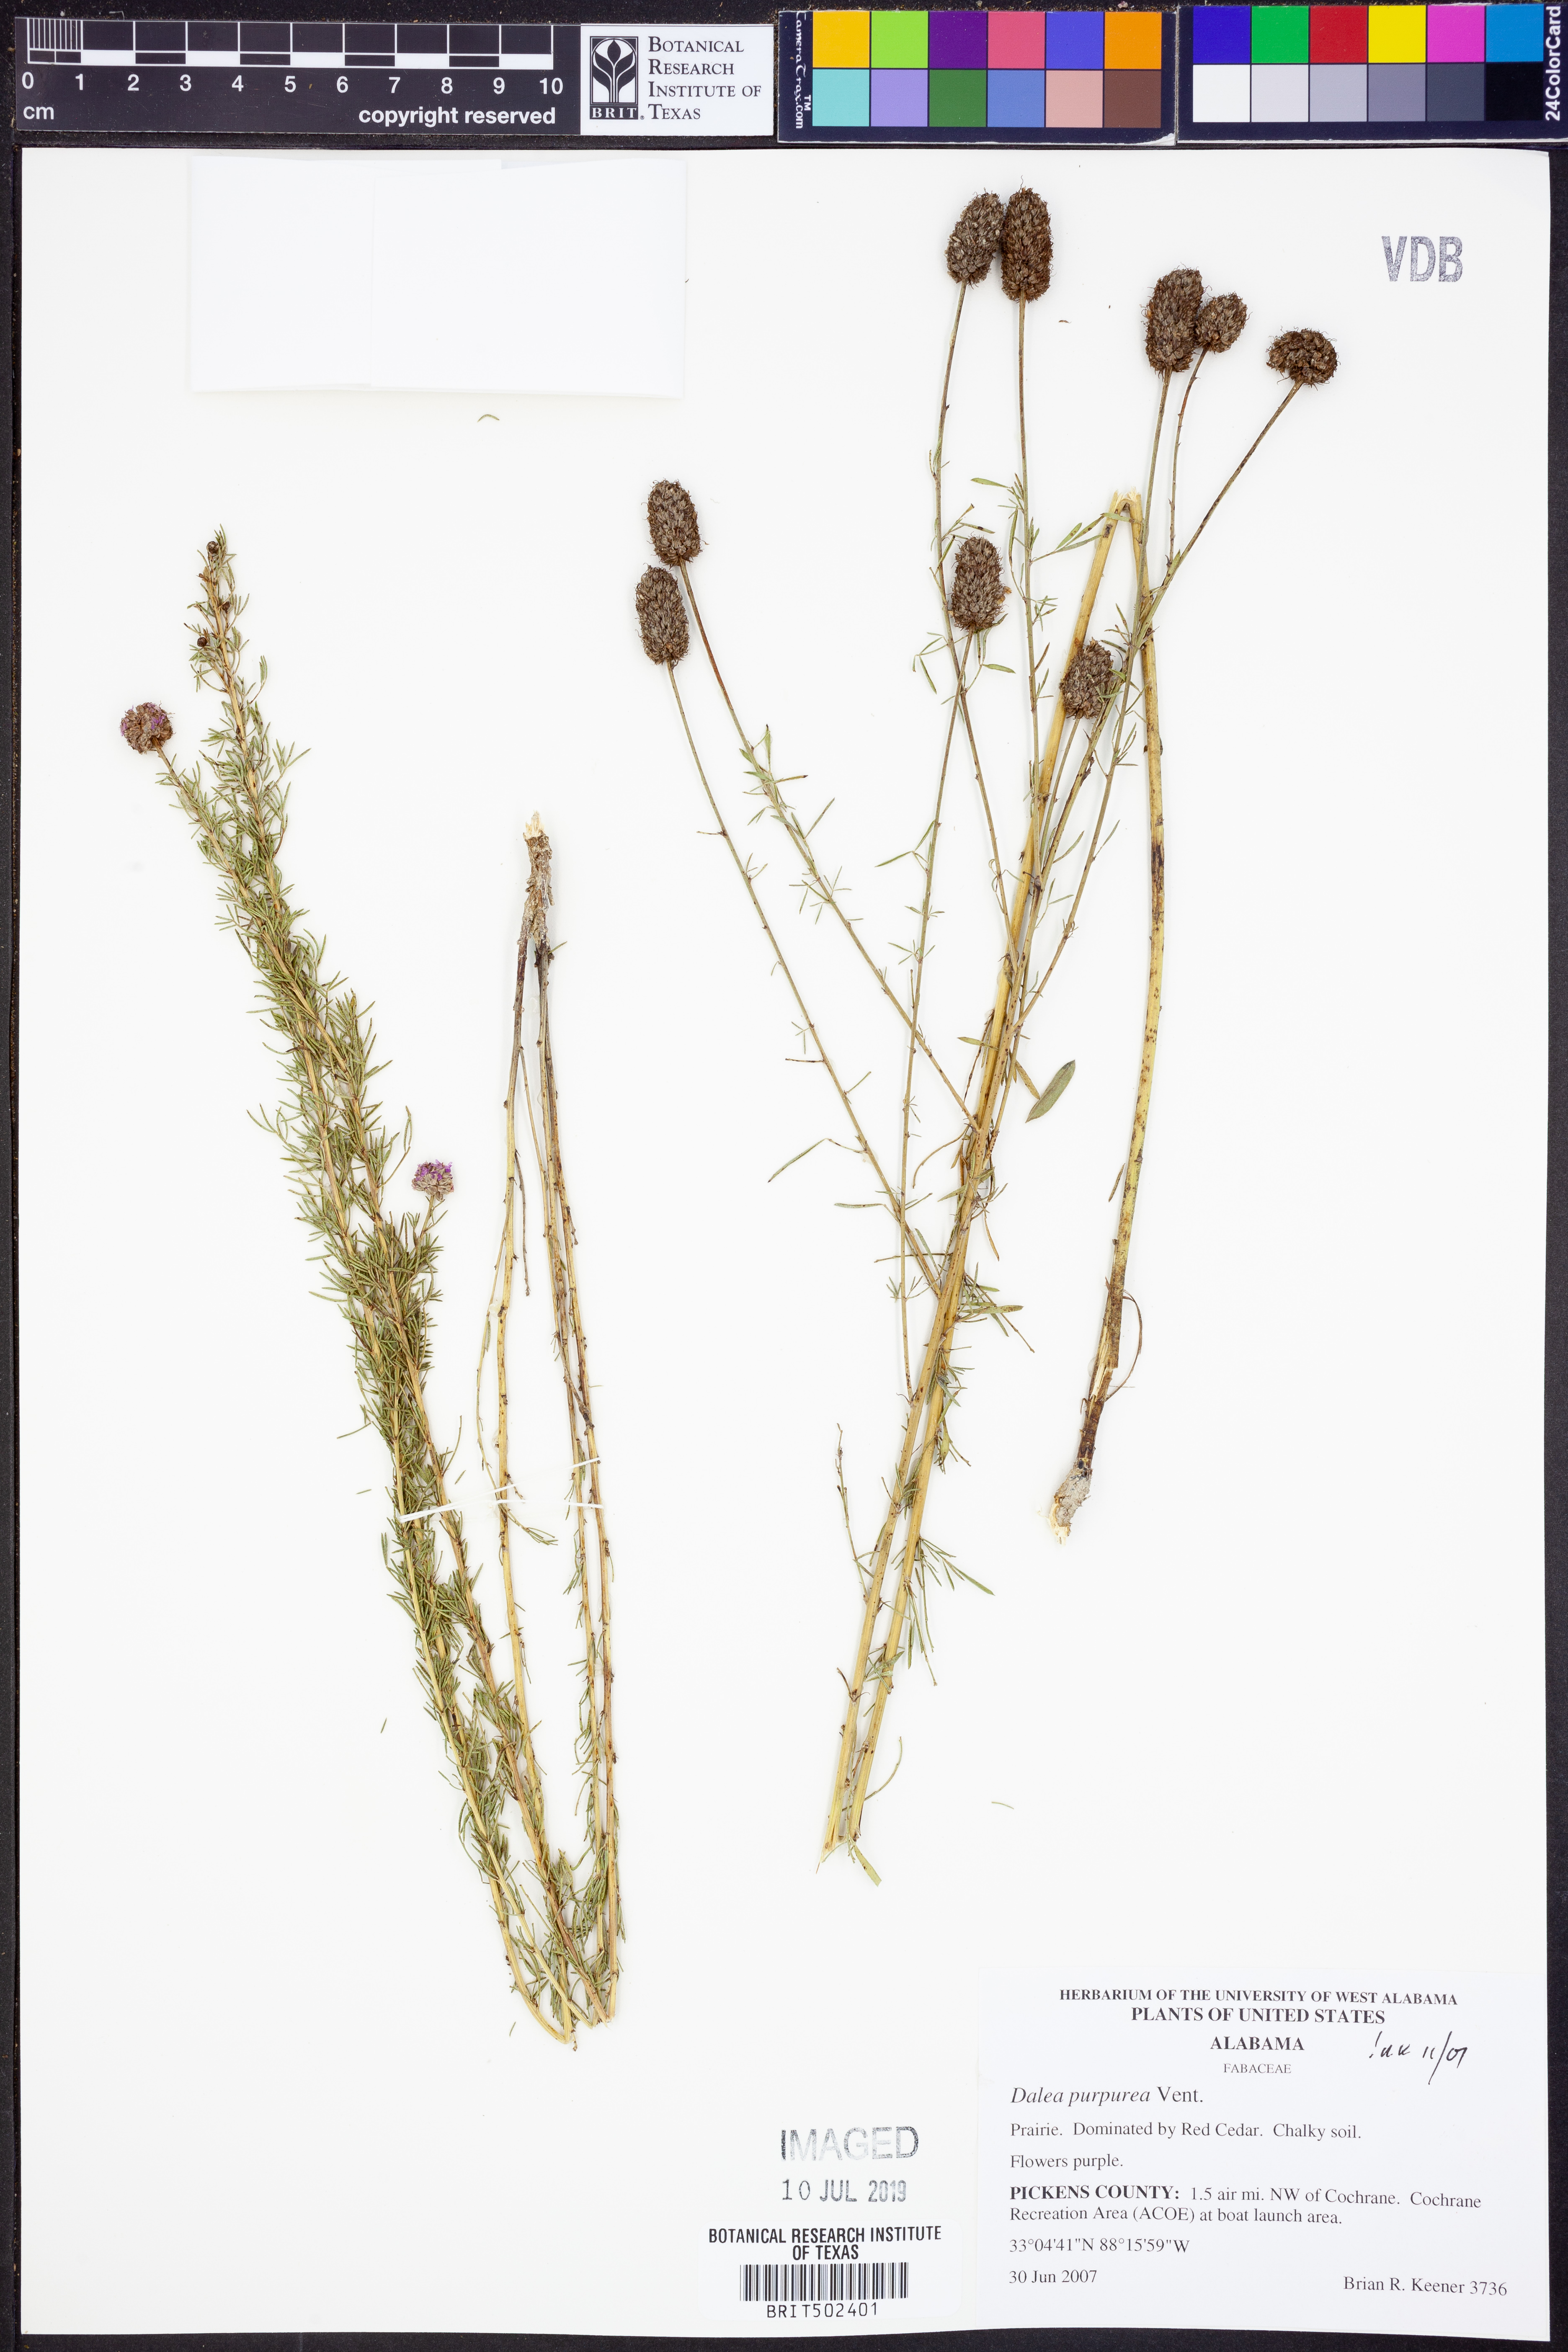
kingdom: Plantae
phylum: Tracheophyta
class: Magnoliopsida
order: Fabales
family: Fabaceae
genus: Dalea
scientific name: Dalea purpurea
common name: Purple prairie-clover
